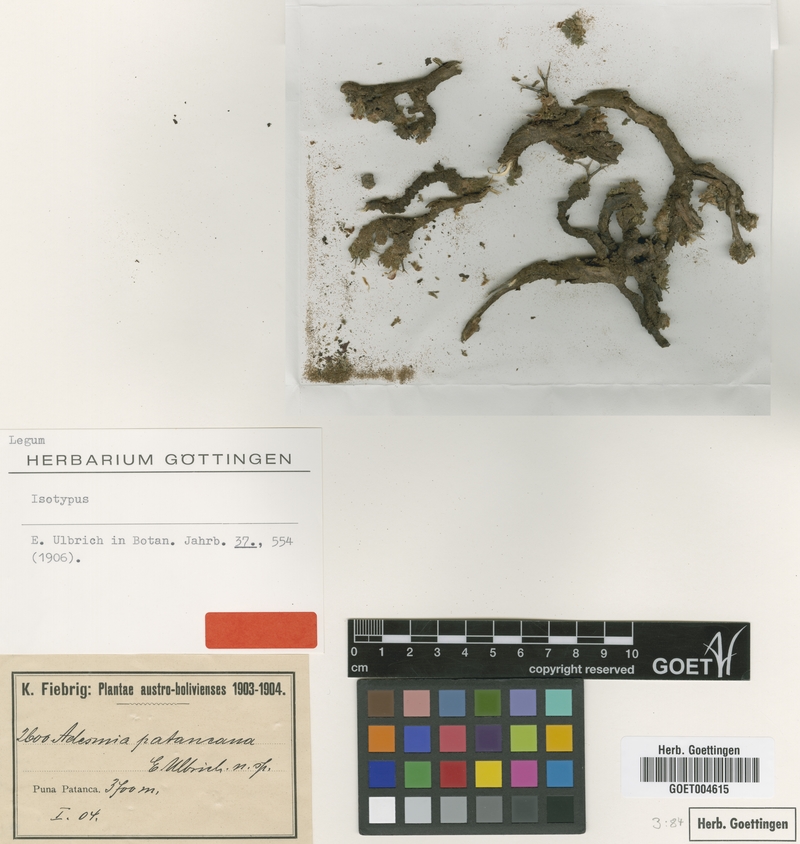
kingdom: Plantae
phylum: Tracheophyta
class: Magnoliopsida
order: Fabales
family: Fabaceae
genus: Adesmia
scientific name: Adesmia occulta
